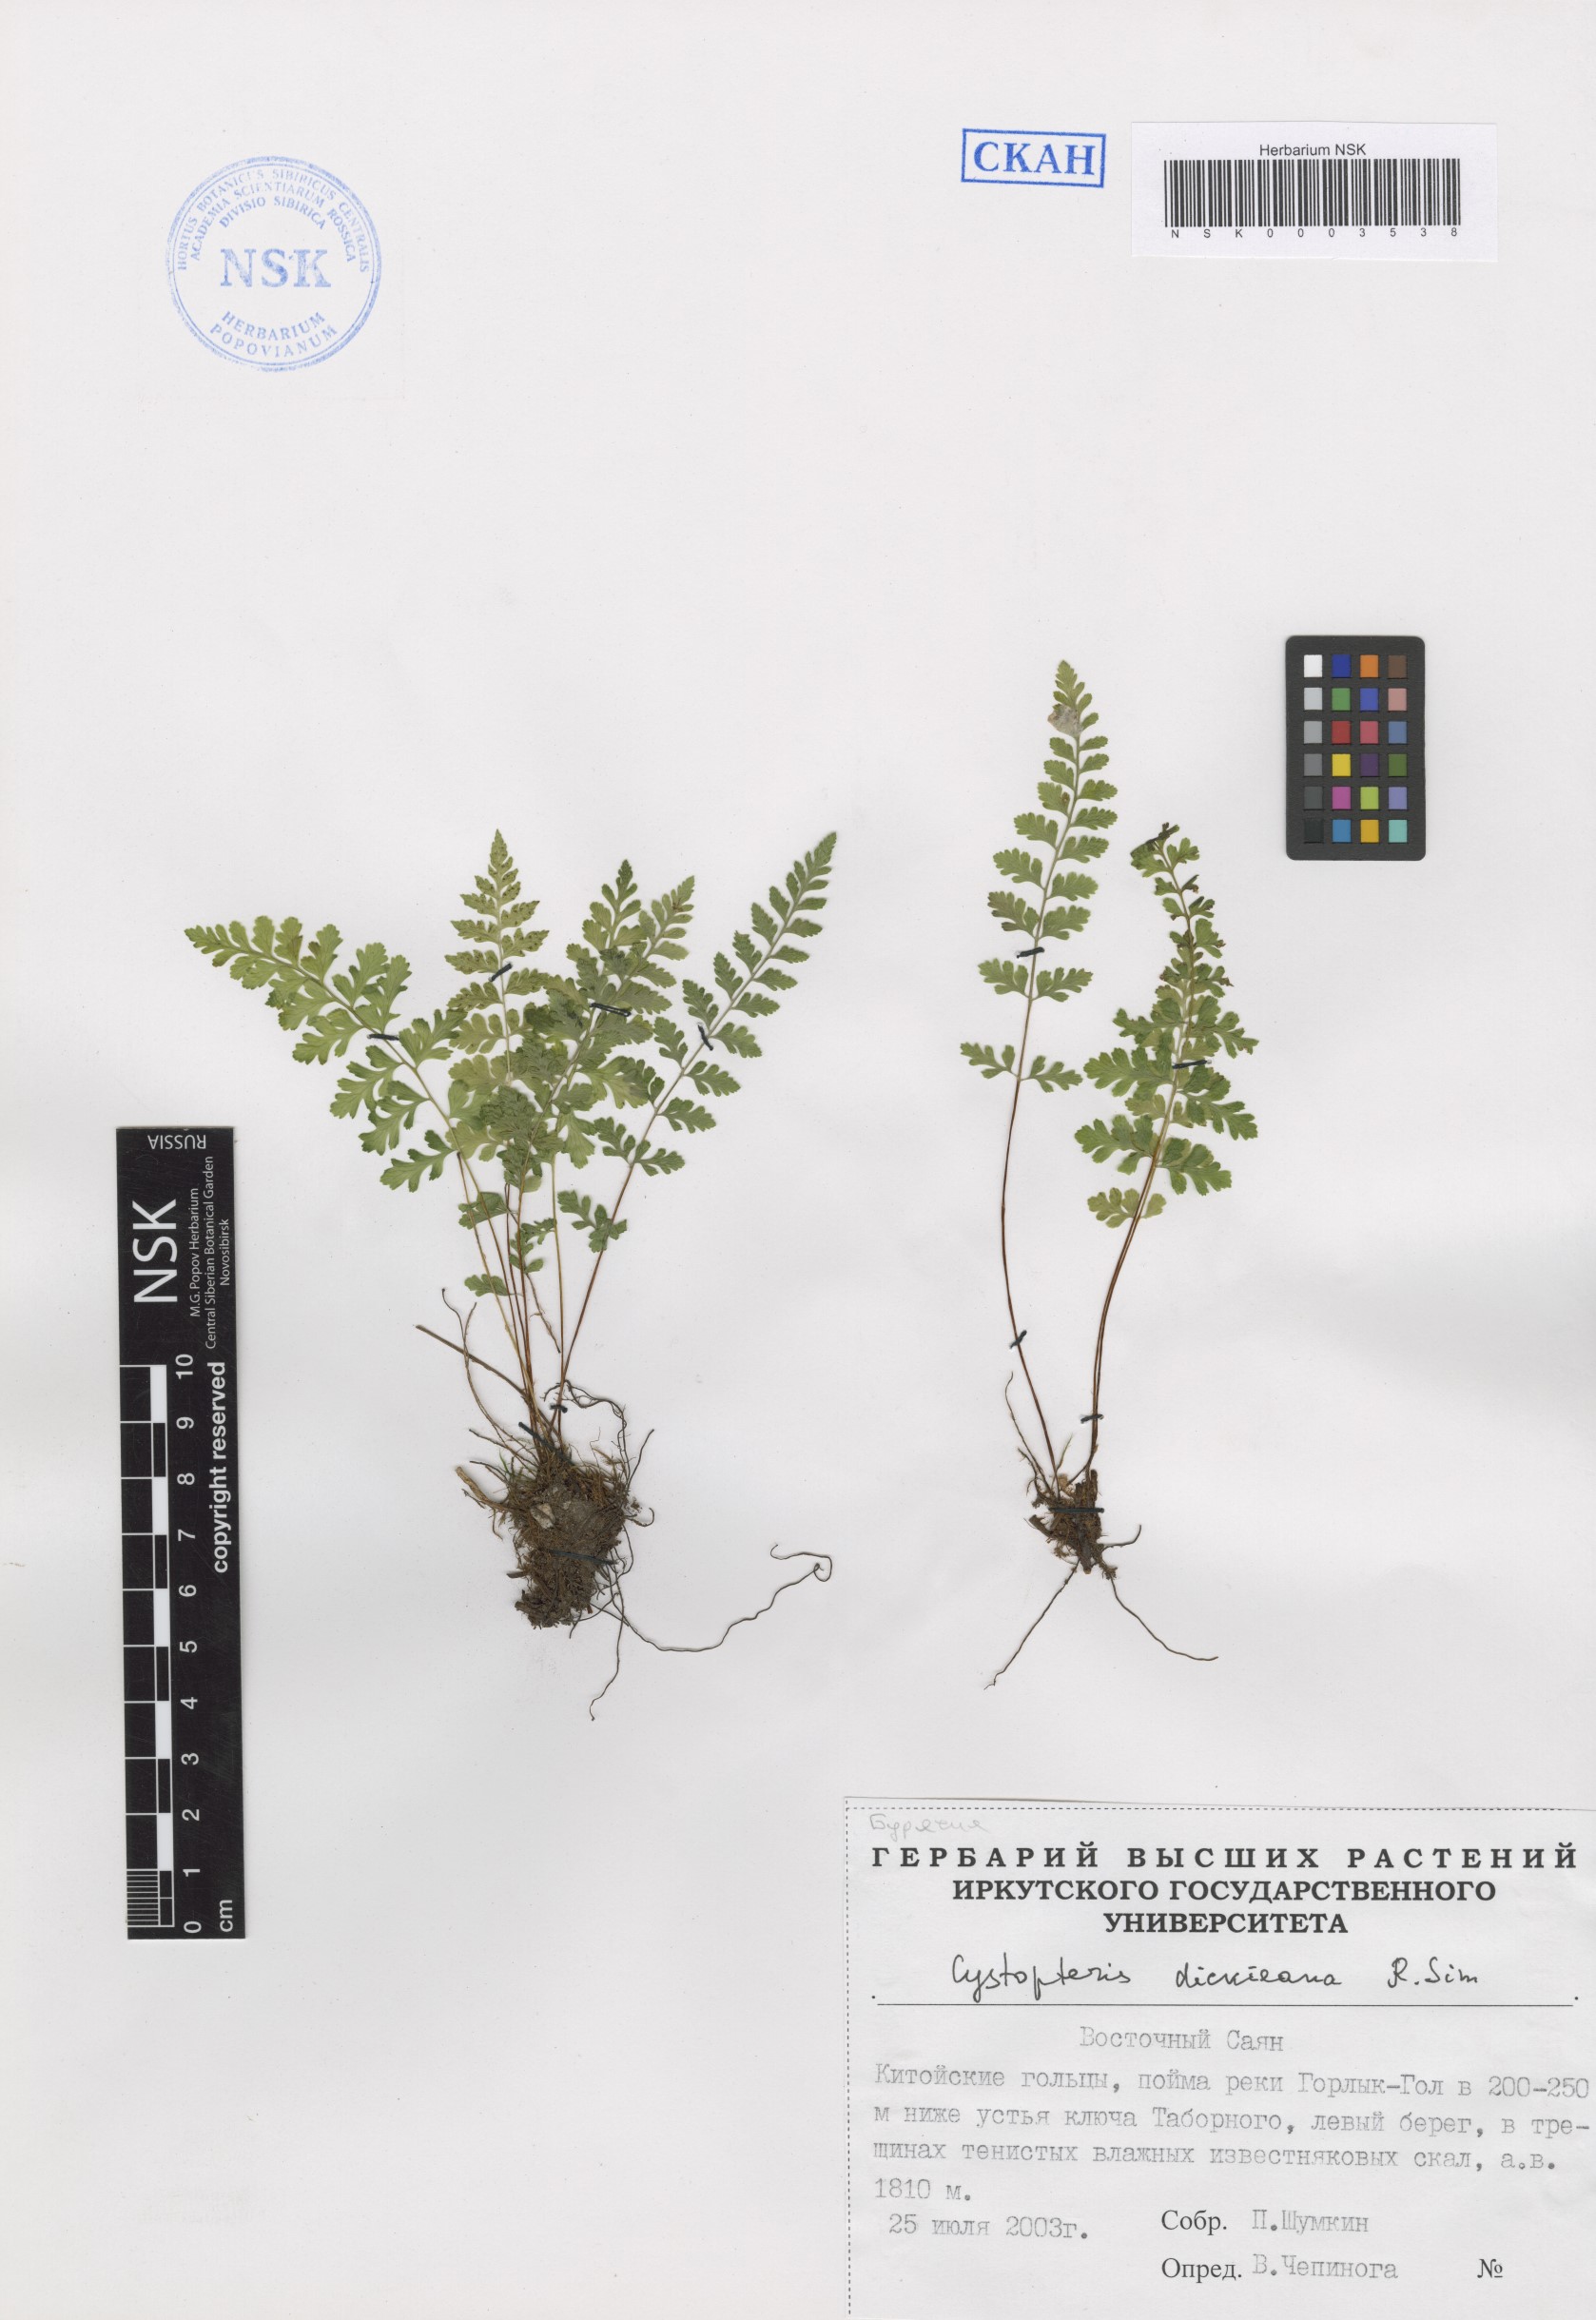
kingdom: Plantae
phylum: Tracheophyta
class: Polypodiopsida
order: Polypodiales
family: Cystopteridaceae
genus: Cystopteris
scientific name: Cystopteris dickieana
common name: Dickie's bladder-fern
